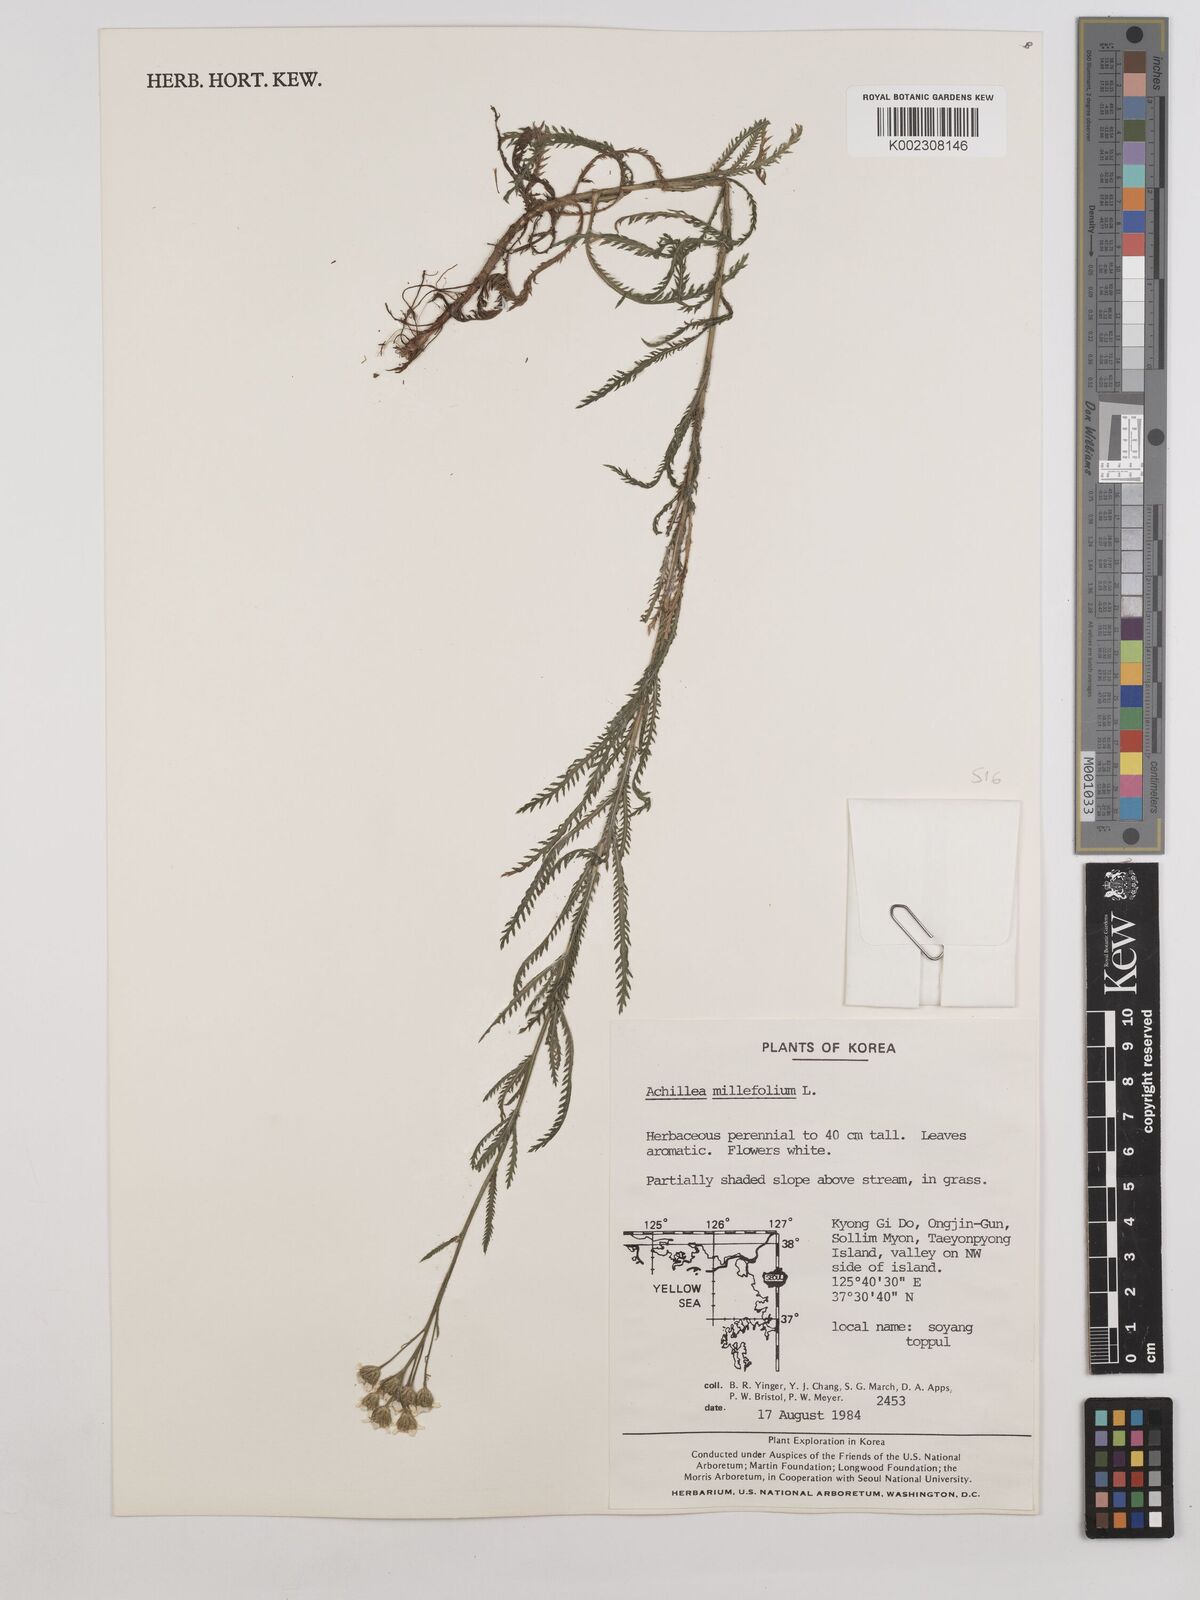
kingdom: Plantae
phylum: Tracheophyta
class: Magnoliopsida
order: Asterales
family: Asteraceae
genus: Achillea
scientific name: Achillea millefolium
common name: Yarrow
